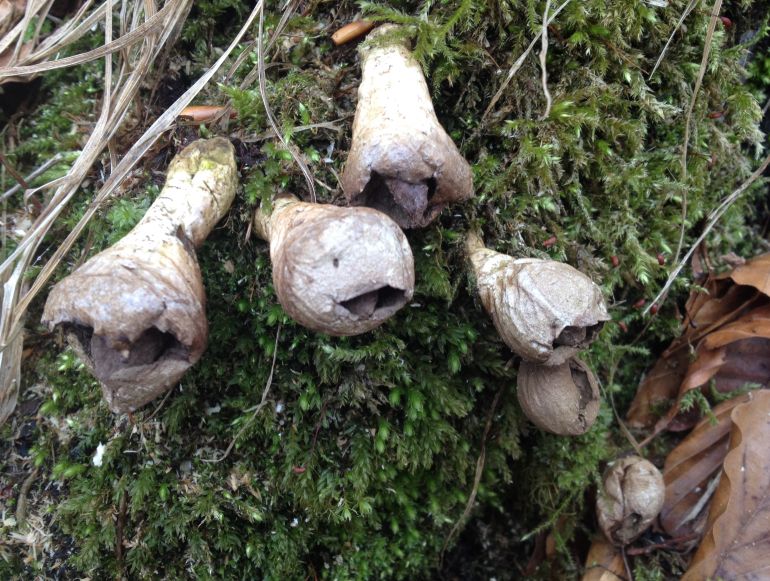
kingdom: Fungi
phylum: Basidiomycota
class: Agaricomycetes
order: Agaricales
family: Lycoperdaceae
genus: Apioperdon
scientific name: Apioperdon pyriforme
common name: pære-støvbold
